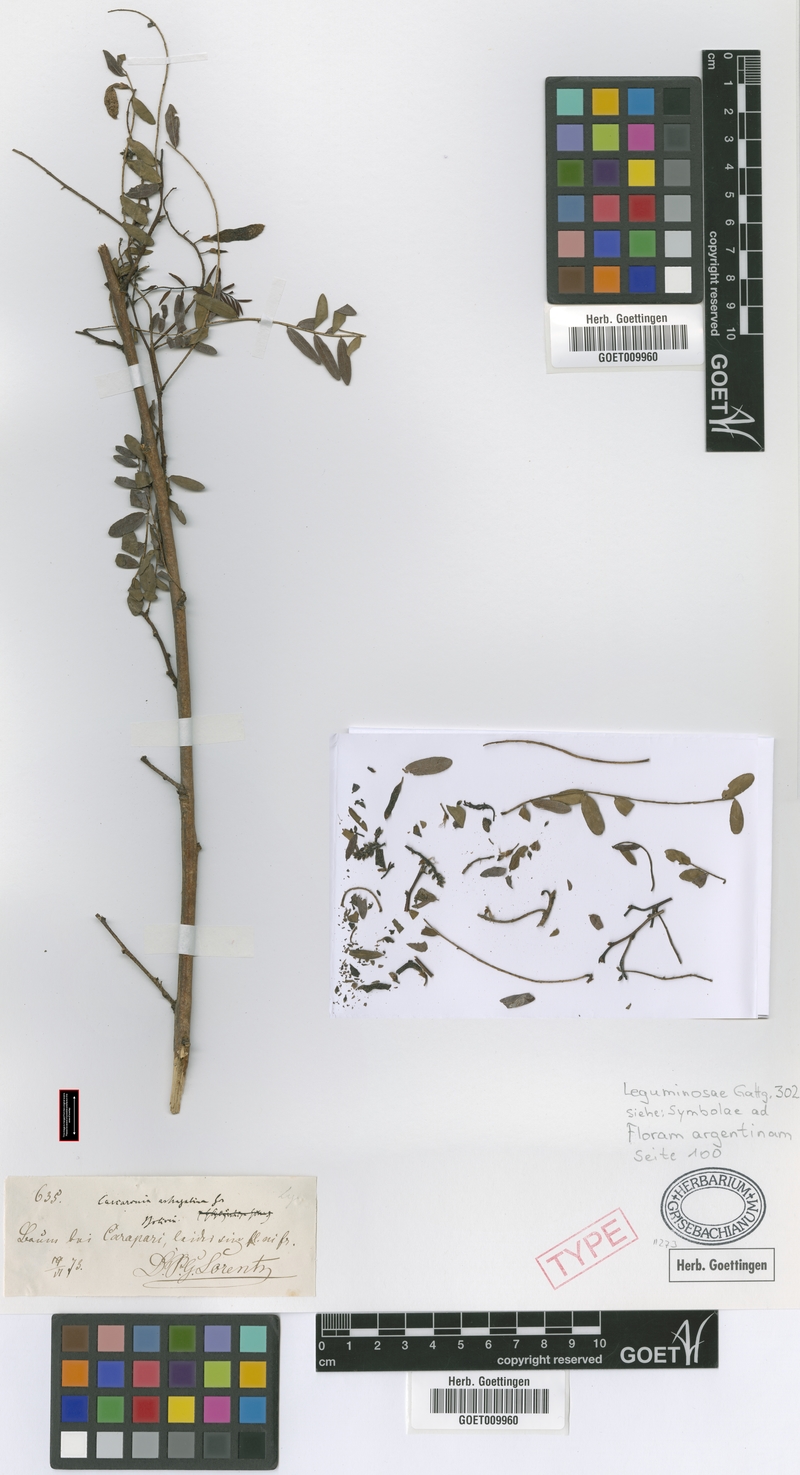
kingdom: Plantae
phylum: Tracheophyta
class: Magnoliopsida
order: Fabales
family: Fabaceae
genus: Cascaronia
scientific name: Cascaronia astragalina
